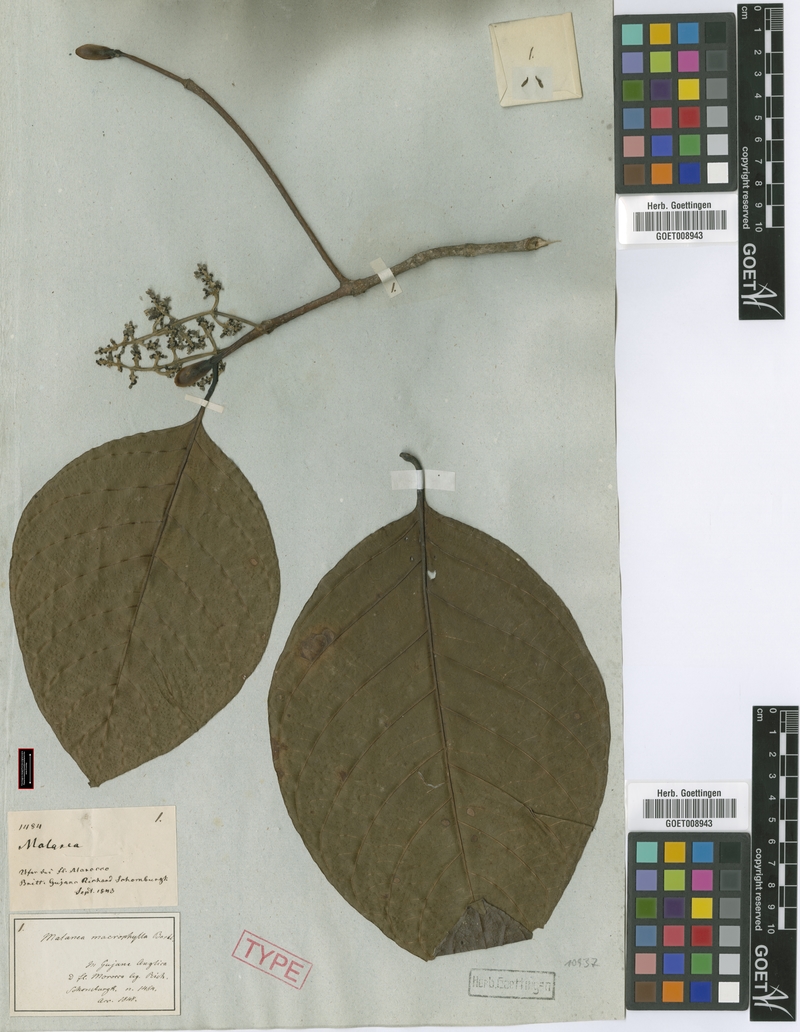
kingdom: Plantae
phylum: Tracheophyta
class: Magnoliopsida
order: Gentianales
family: Rubiaceae
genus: Malanea
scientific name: Malanea glabra
